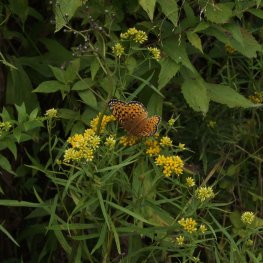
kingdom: Animalia
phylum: Arthropoda
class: Insecta
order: Lepidoptera
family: Nymphalidae
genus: Speyeria
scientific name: Speyeria atlantis
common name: Atlantis Fritillary
